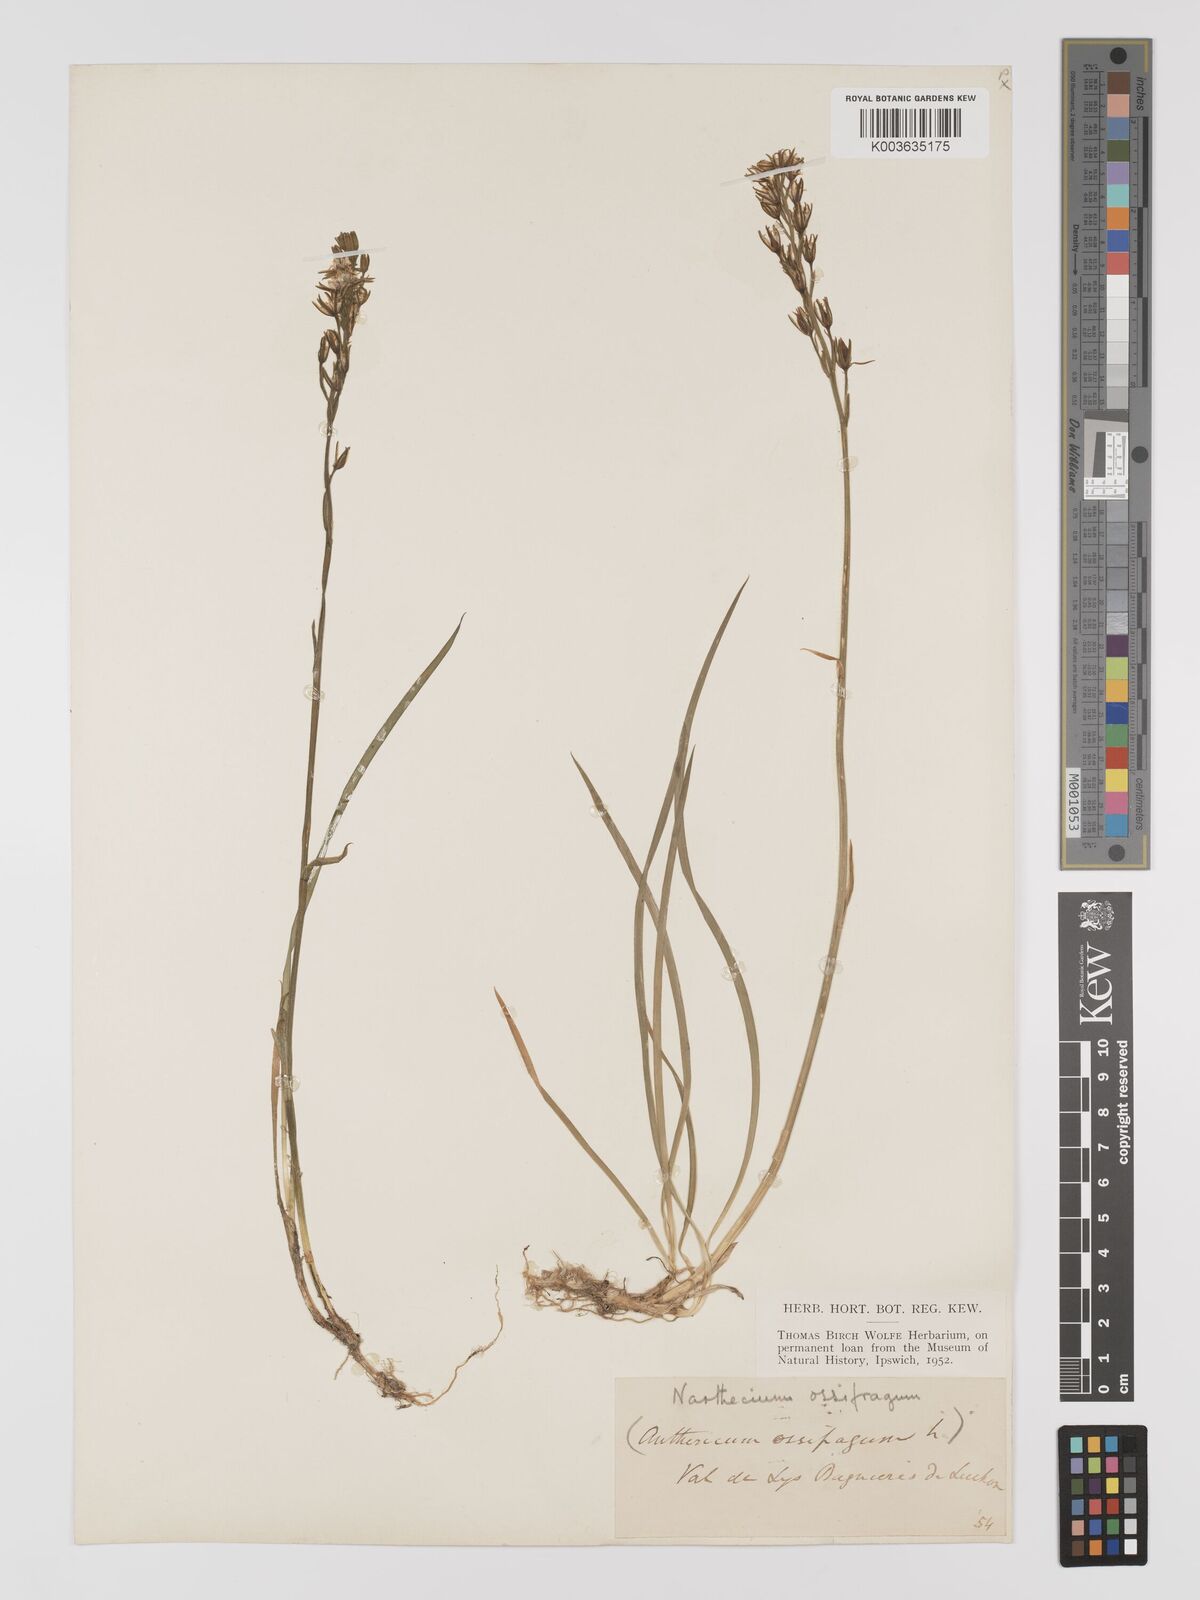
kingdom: Plantae
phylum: Tracheophyta
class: Liliopsida
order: Dioscoreales
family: Nartheciaceae
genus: Narthecium
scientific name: Narthecium ossifragum
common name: Bog asphodel
